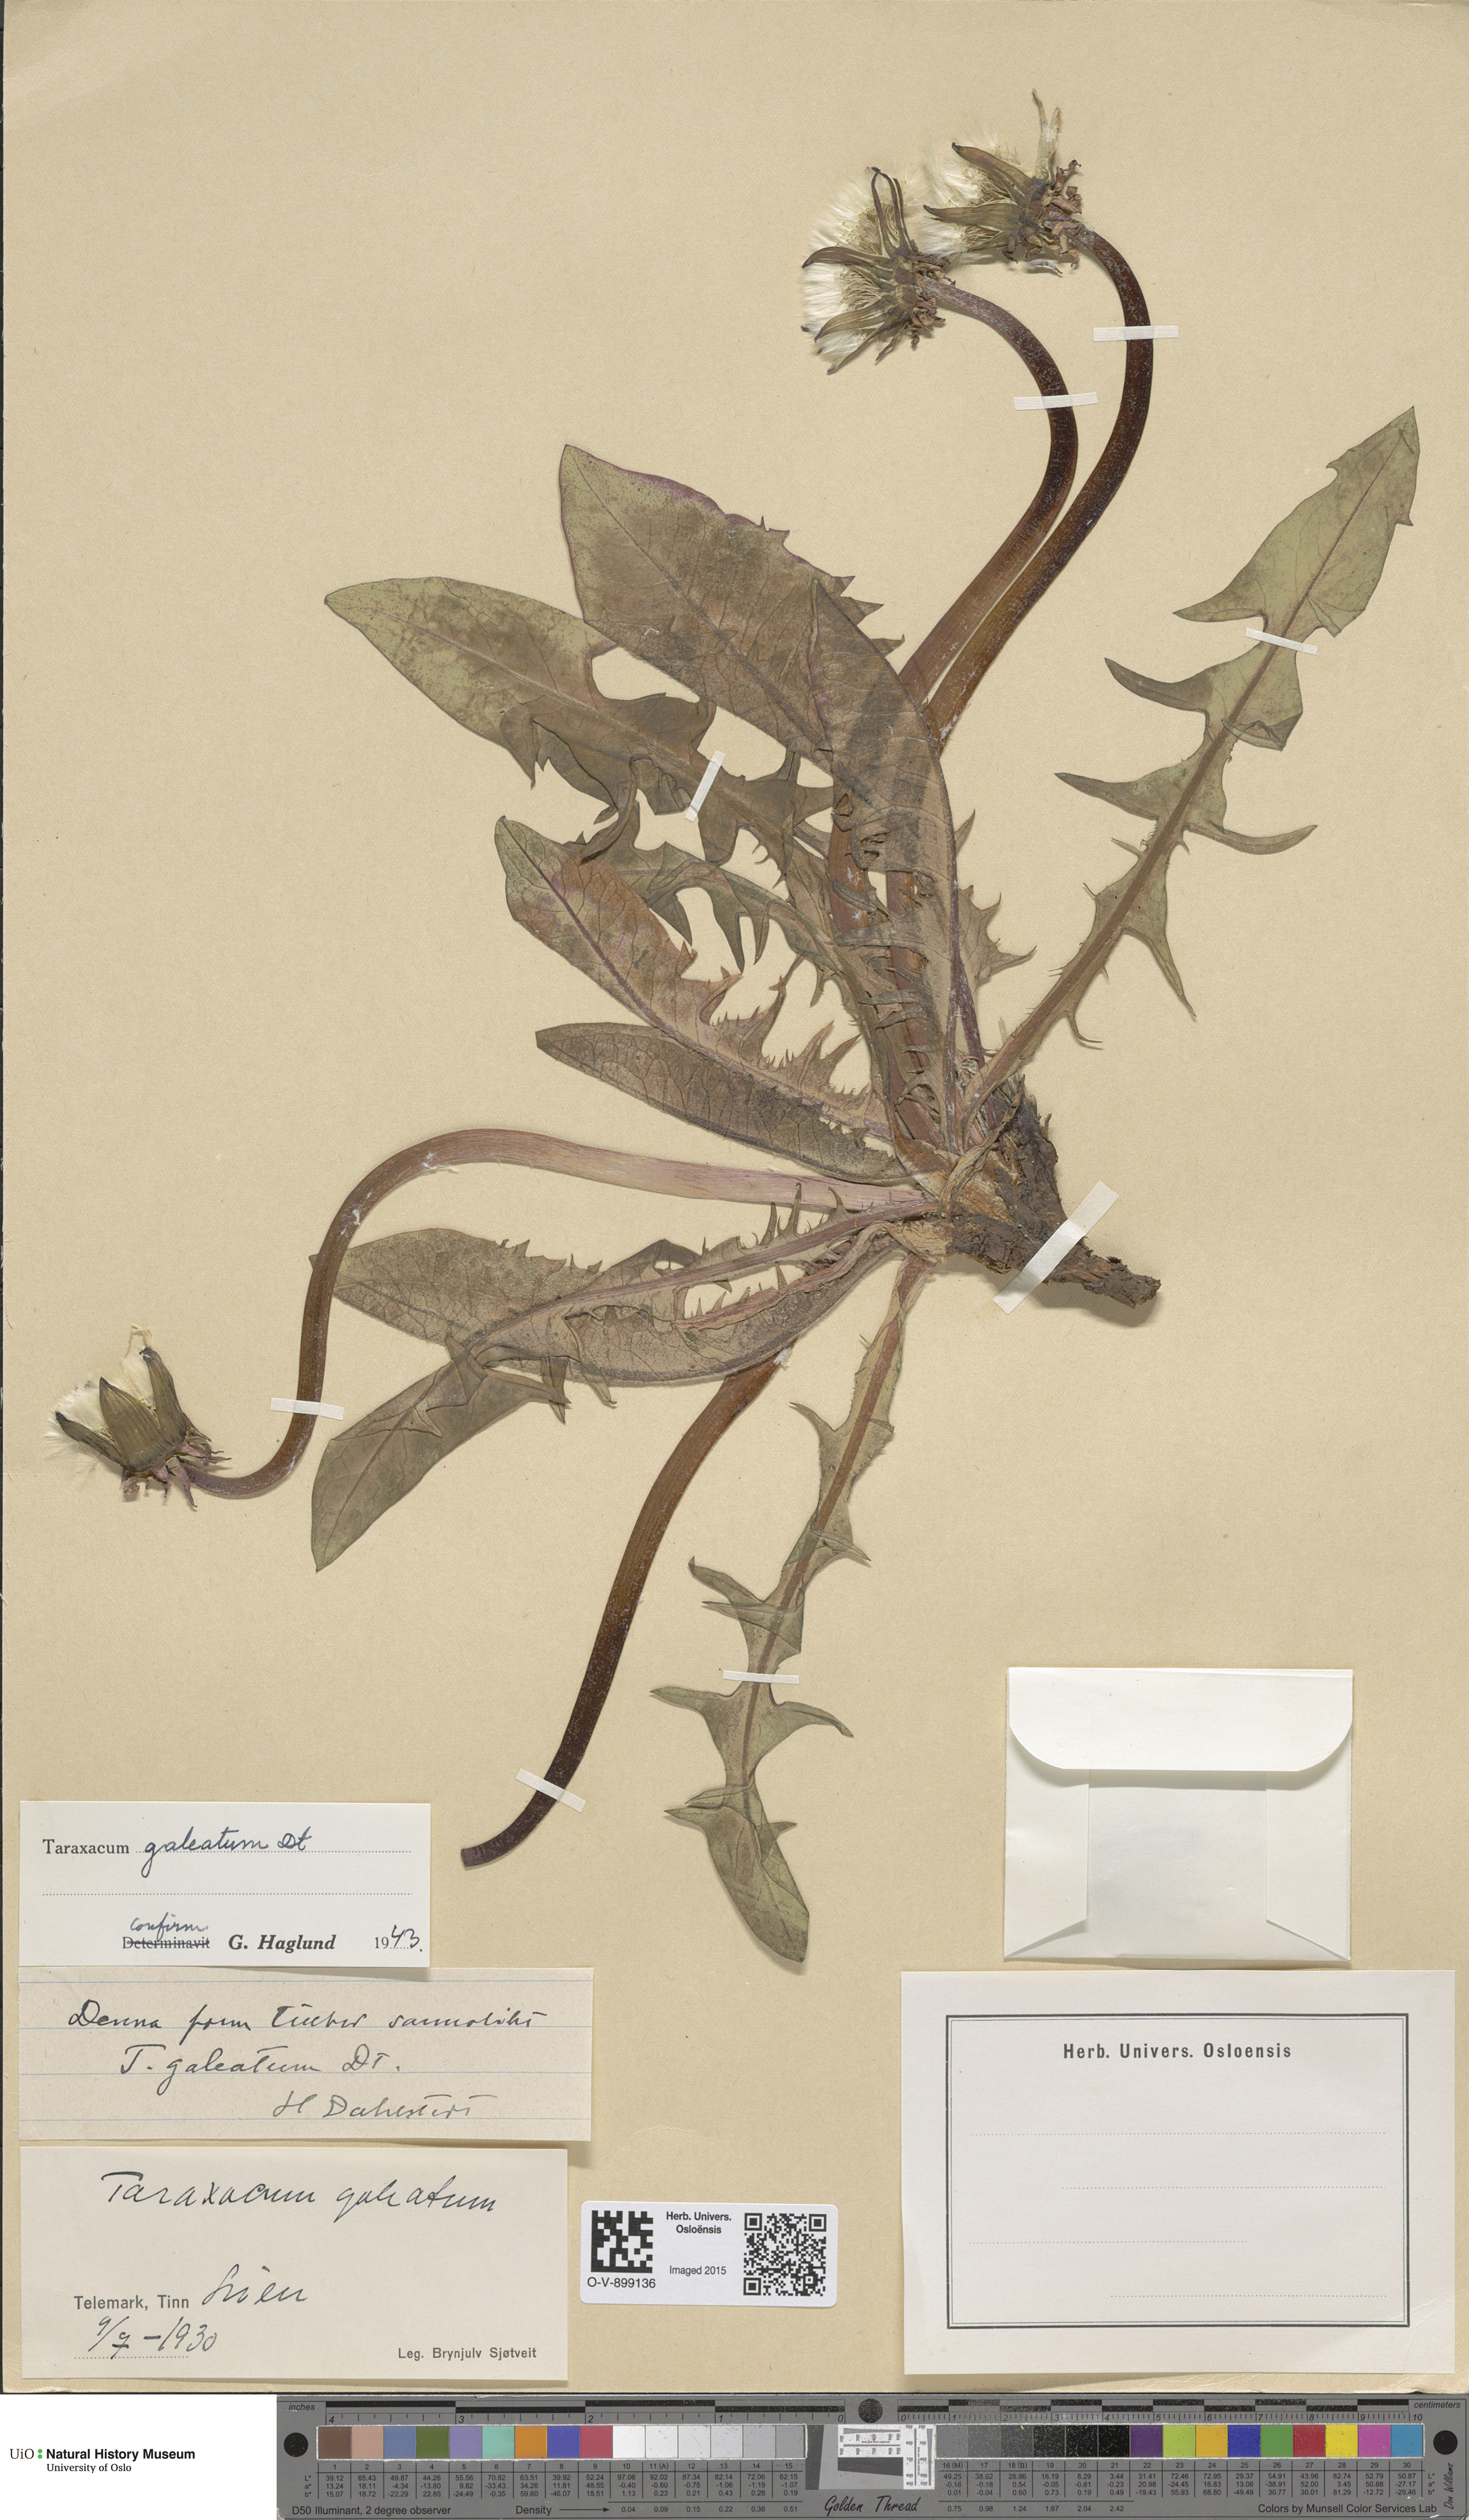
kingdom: Plantae
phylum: Tracheophyta
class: Magnoliopsida
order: Asterales
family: Asteraceae
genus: Taraxacum
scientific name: Taraxacum galeatum
